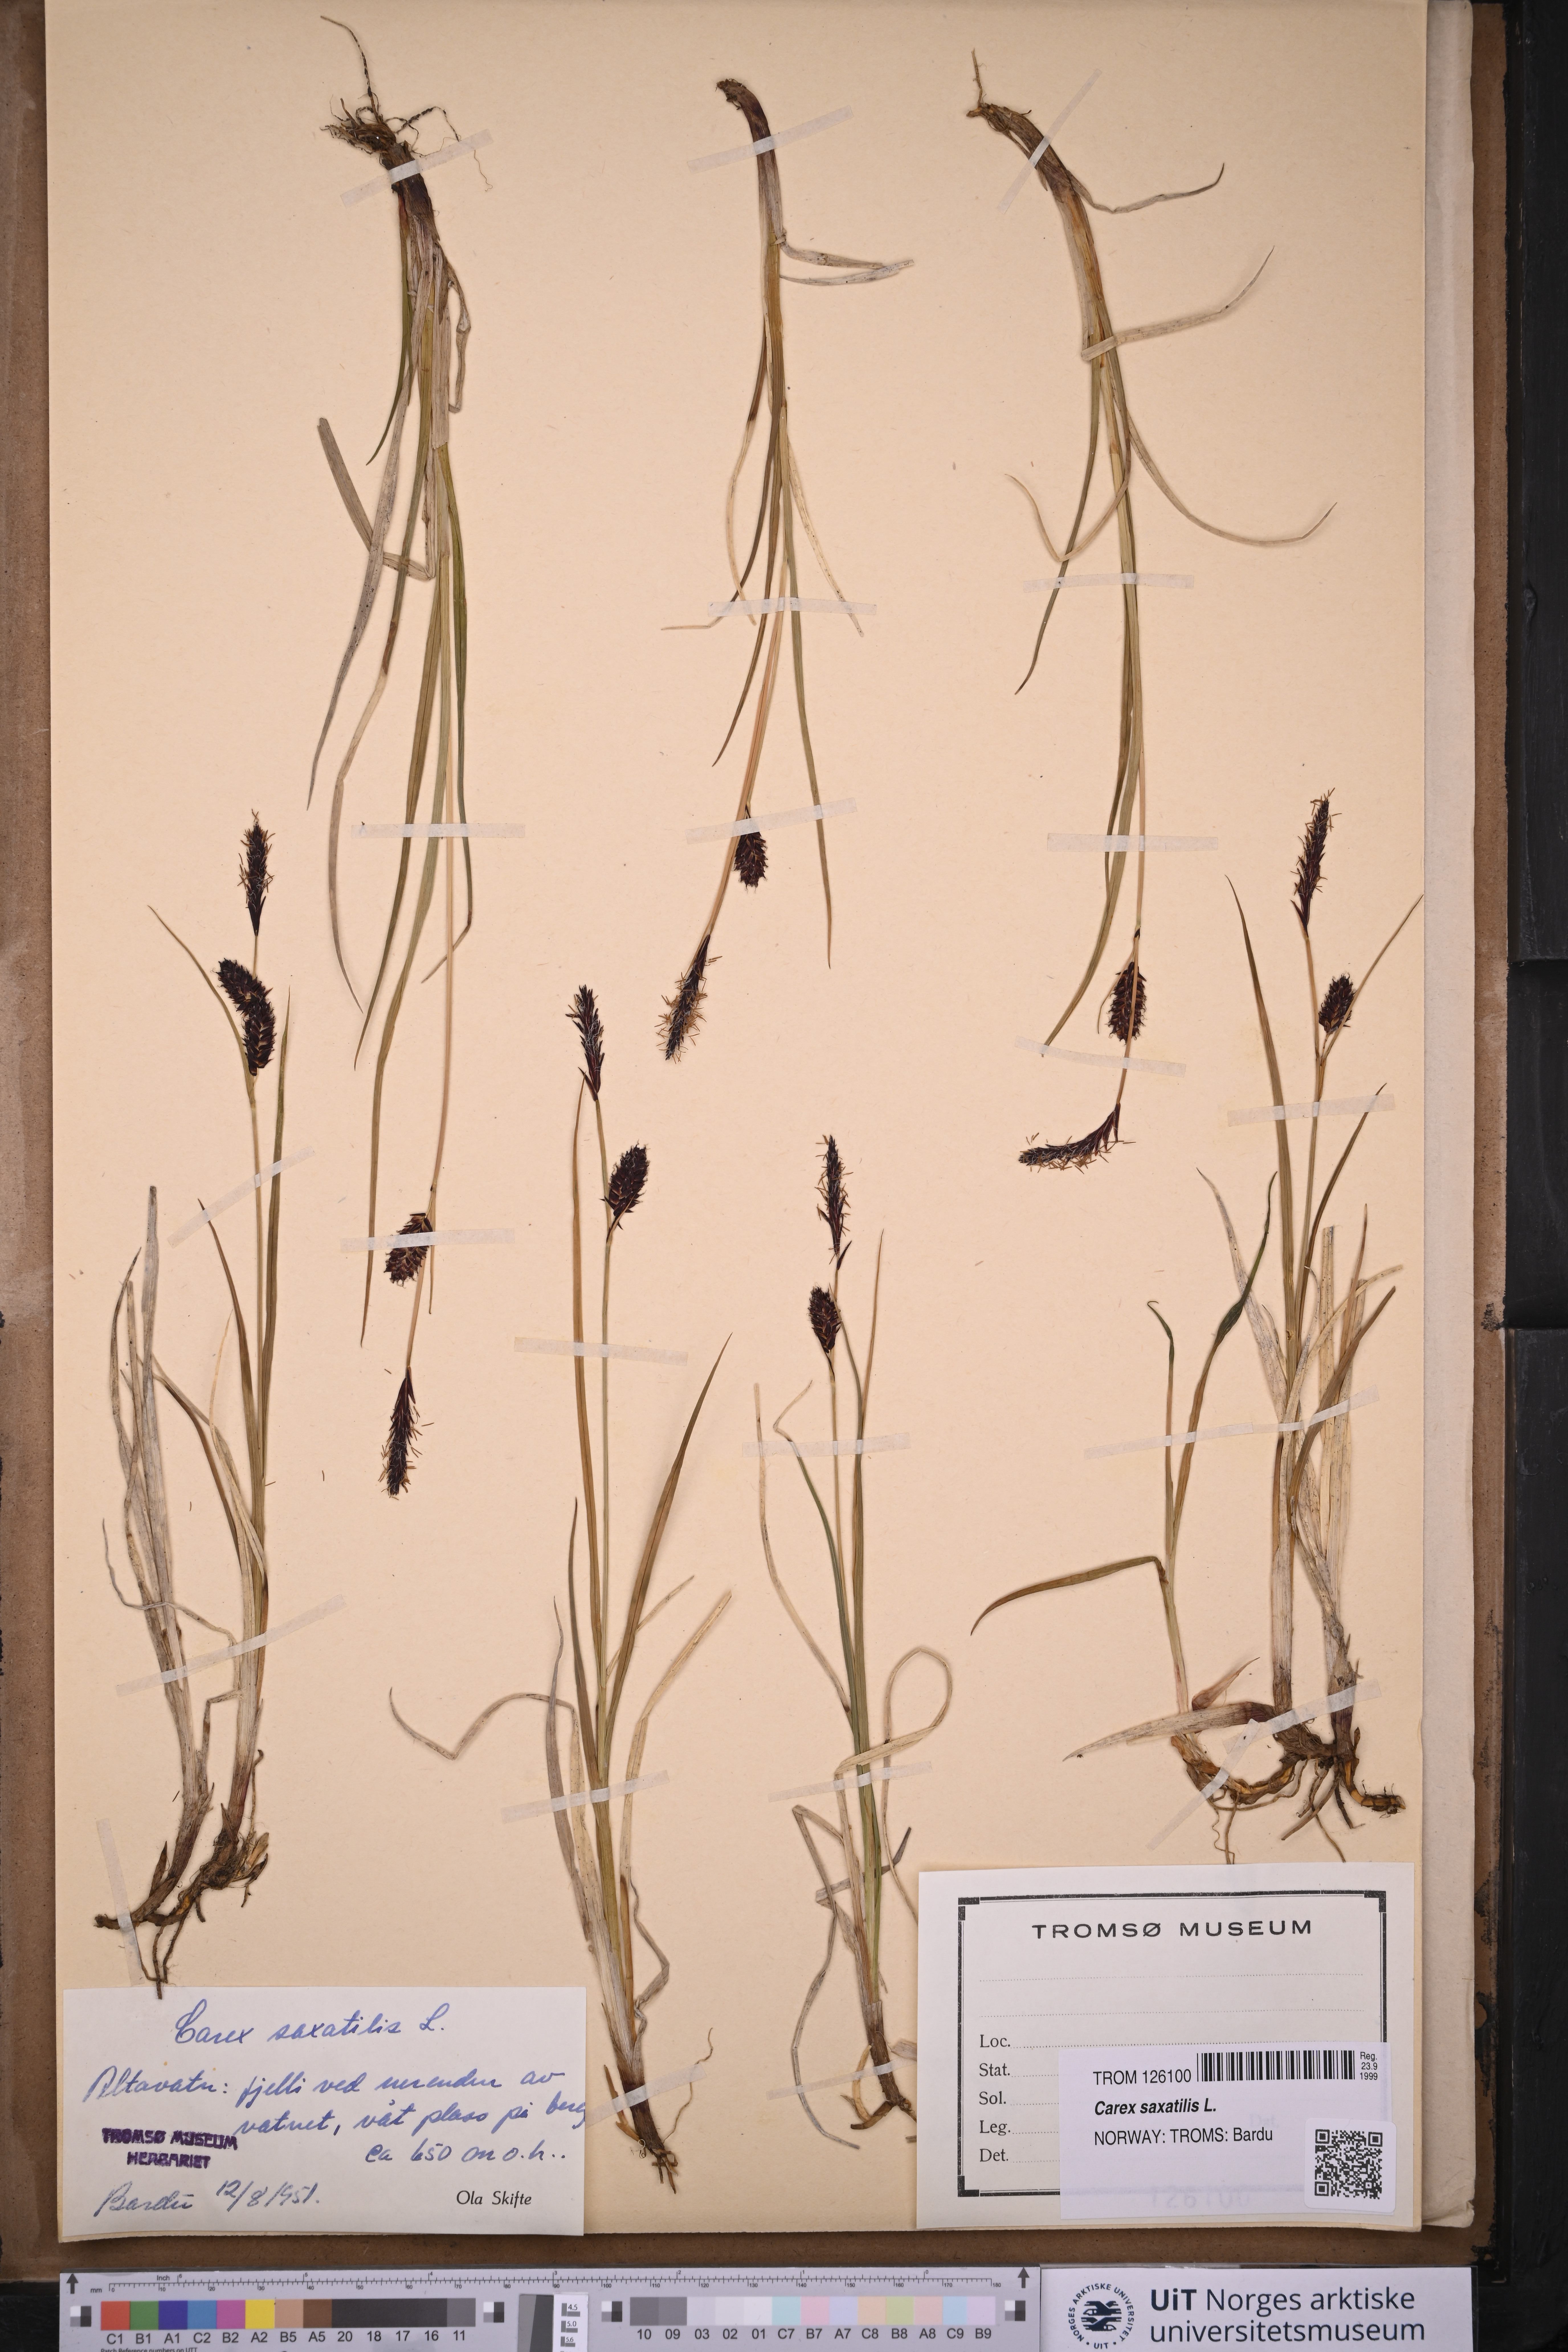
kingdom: Plantae
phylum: Tracheophyta
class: Liliopsida
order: Poales
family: Cyperaceae
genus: Carex
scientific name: Carex saxatilis
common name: Russet sedge
